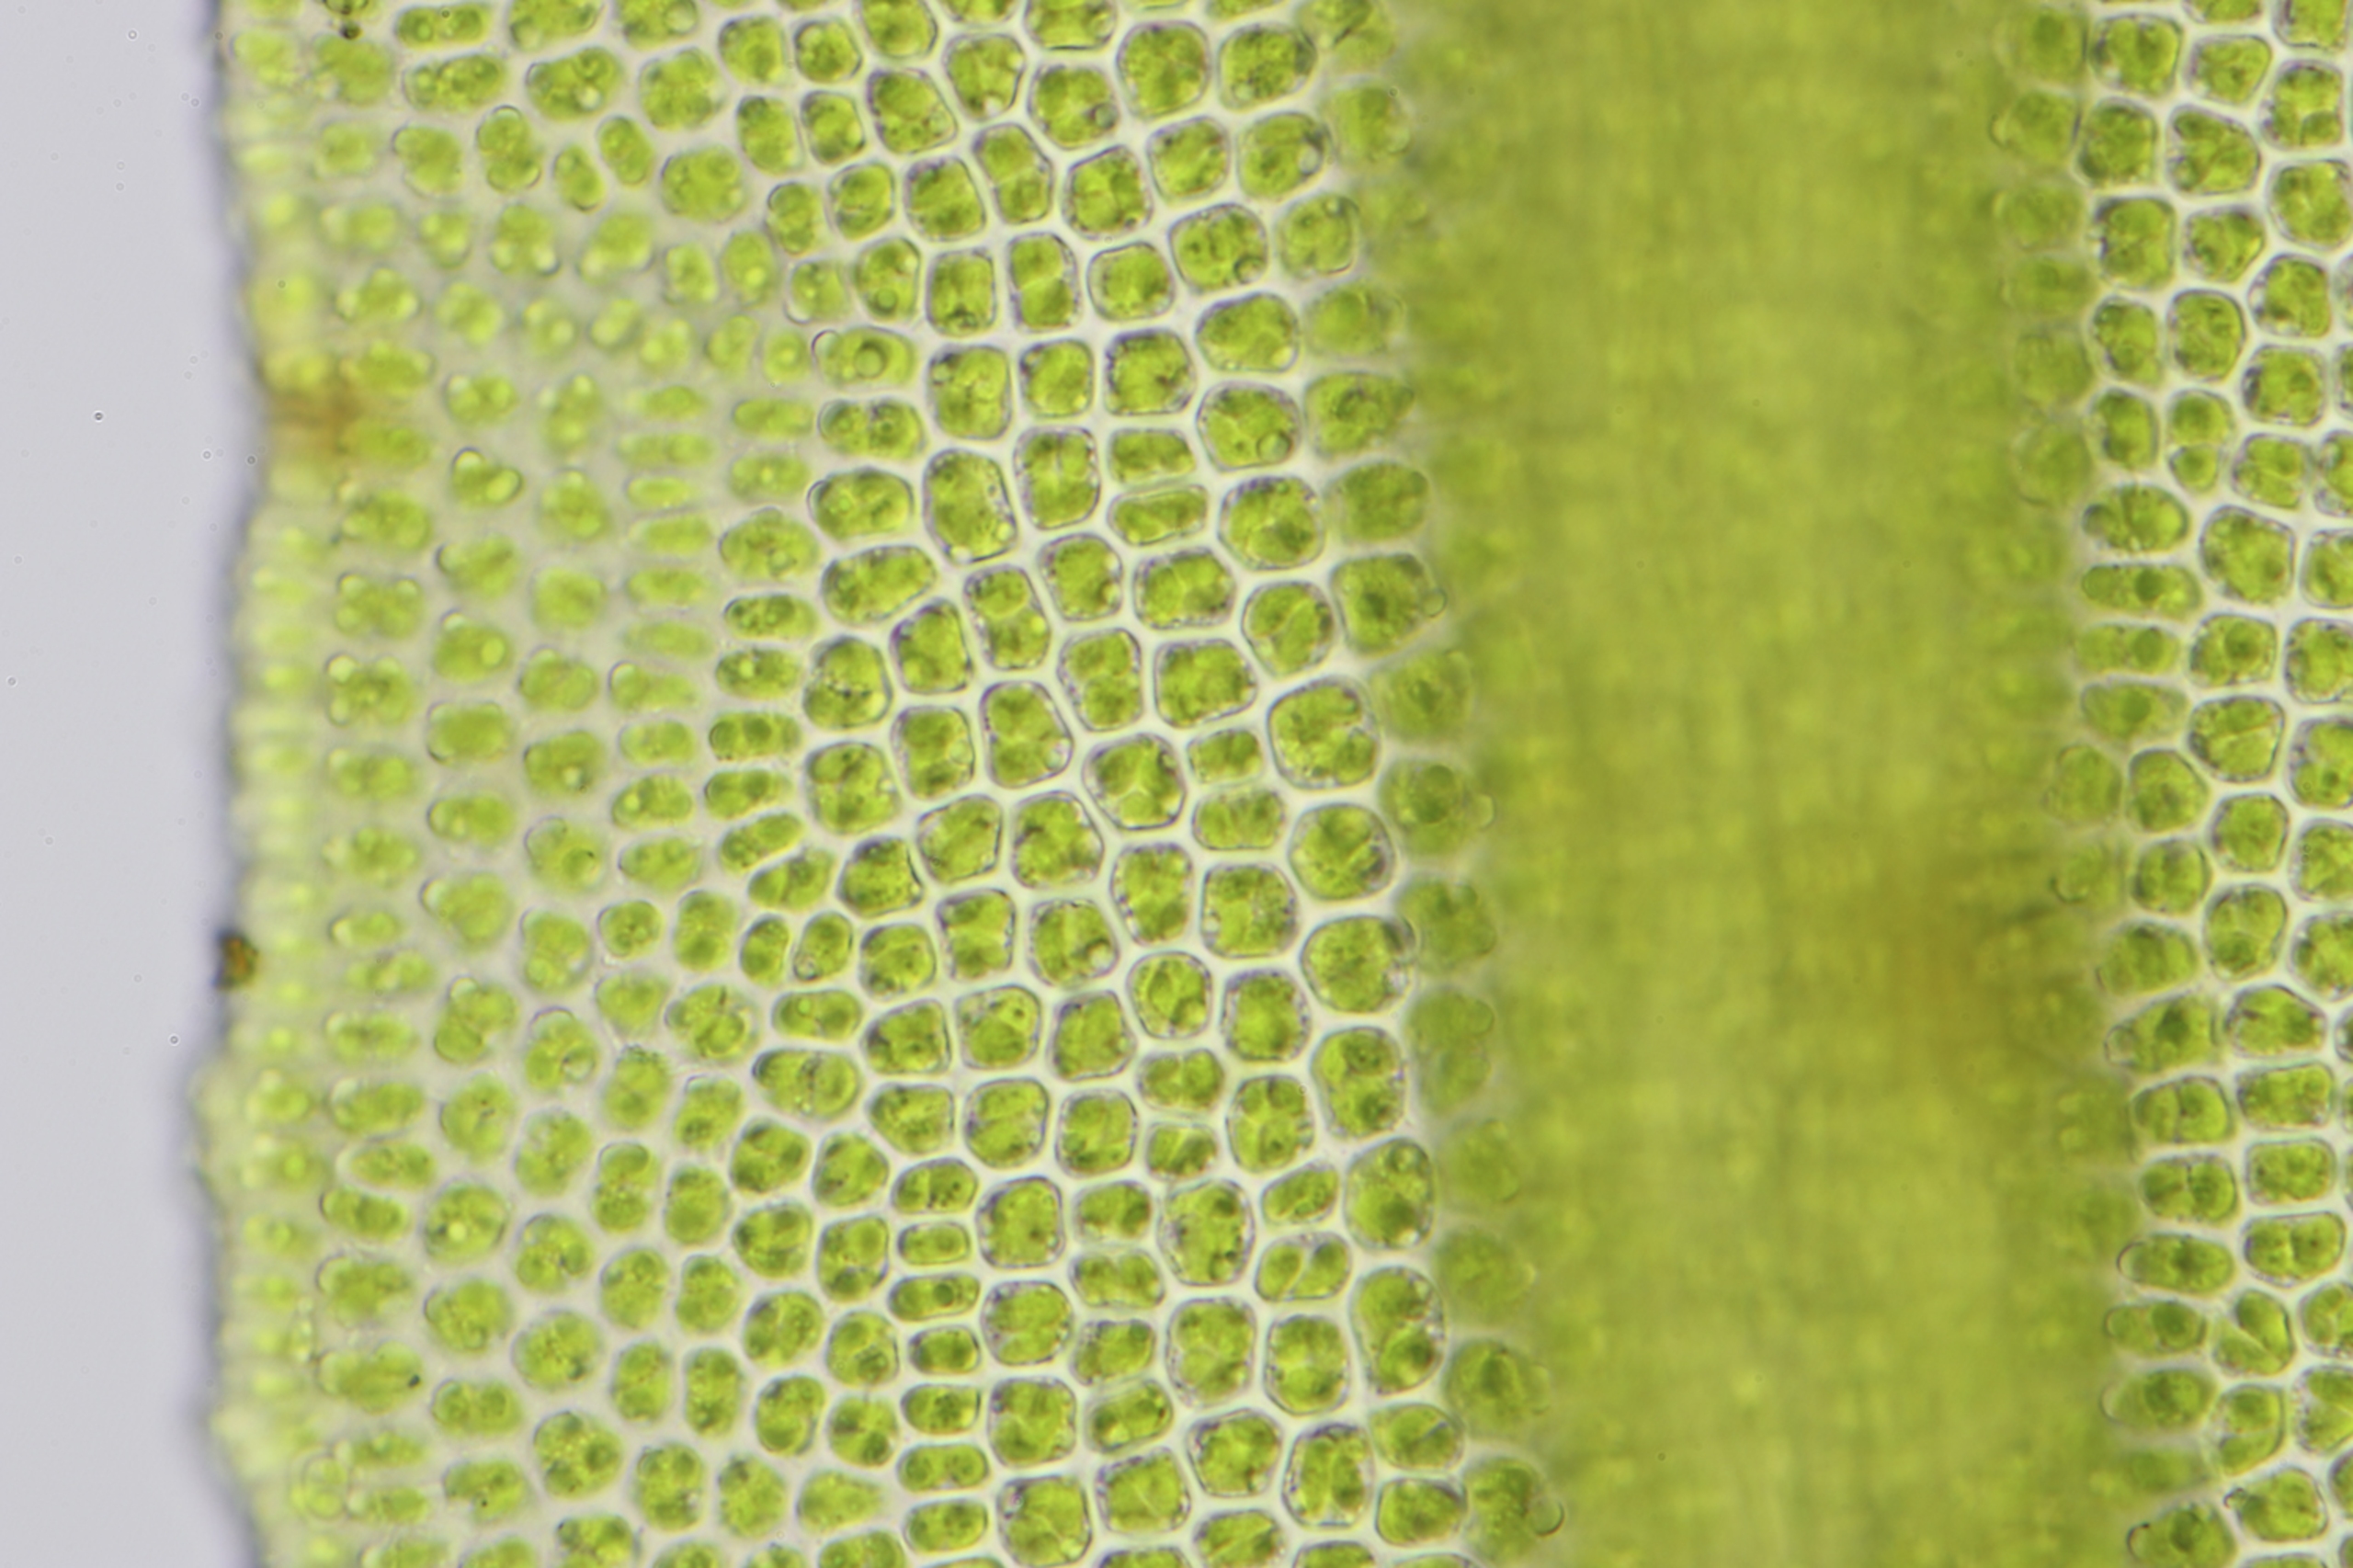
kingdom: Plantae
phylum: Bryophyta
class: Bryopsida
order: Pottiales
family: Pottiaceae
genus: Husnotiella
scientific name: Husnotiella sinuosa
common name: Bølget kalktuemos
